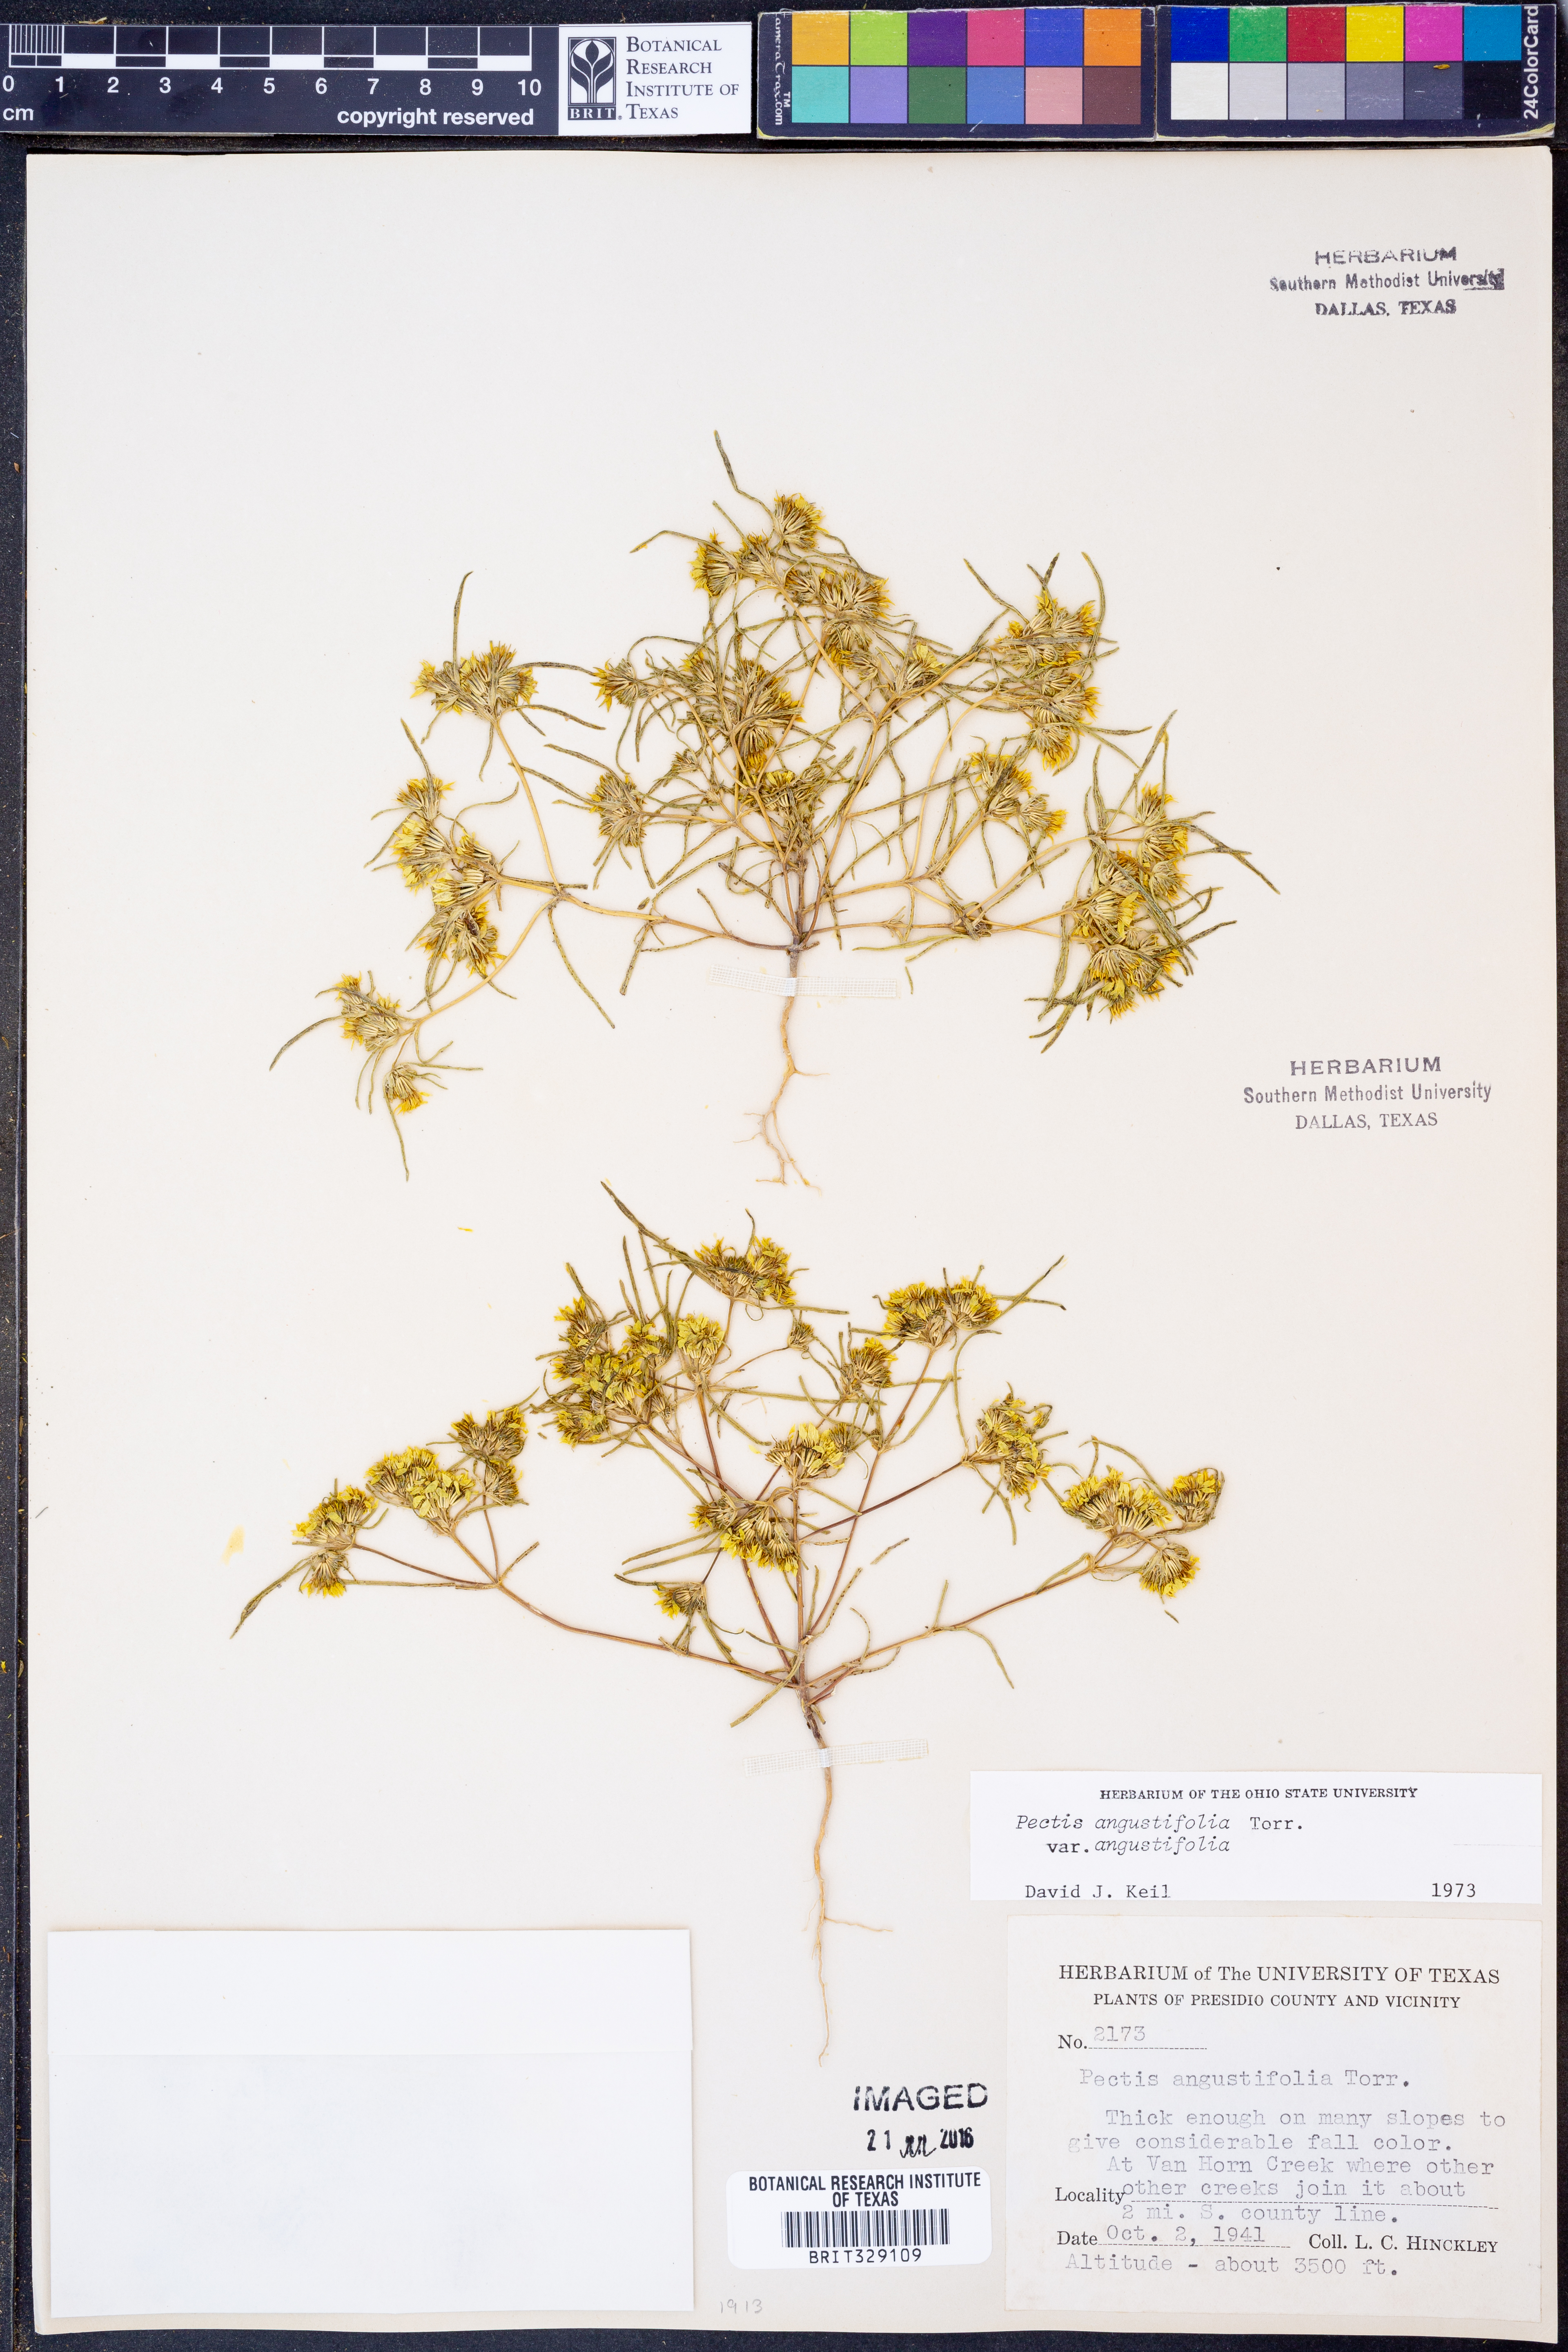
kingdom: Plantae
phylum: Tracheophyta
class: Magnoliopsida
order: Asterales
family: Asteraceae
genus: Pectis
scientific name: Pectis angustifolia
